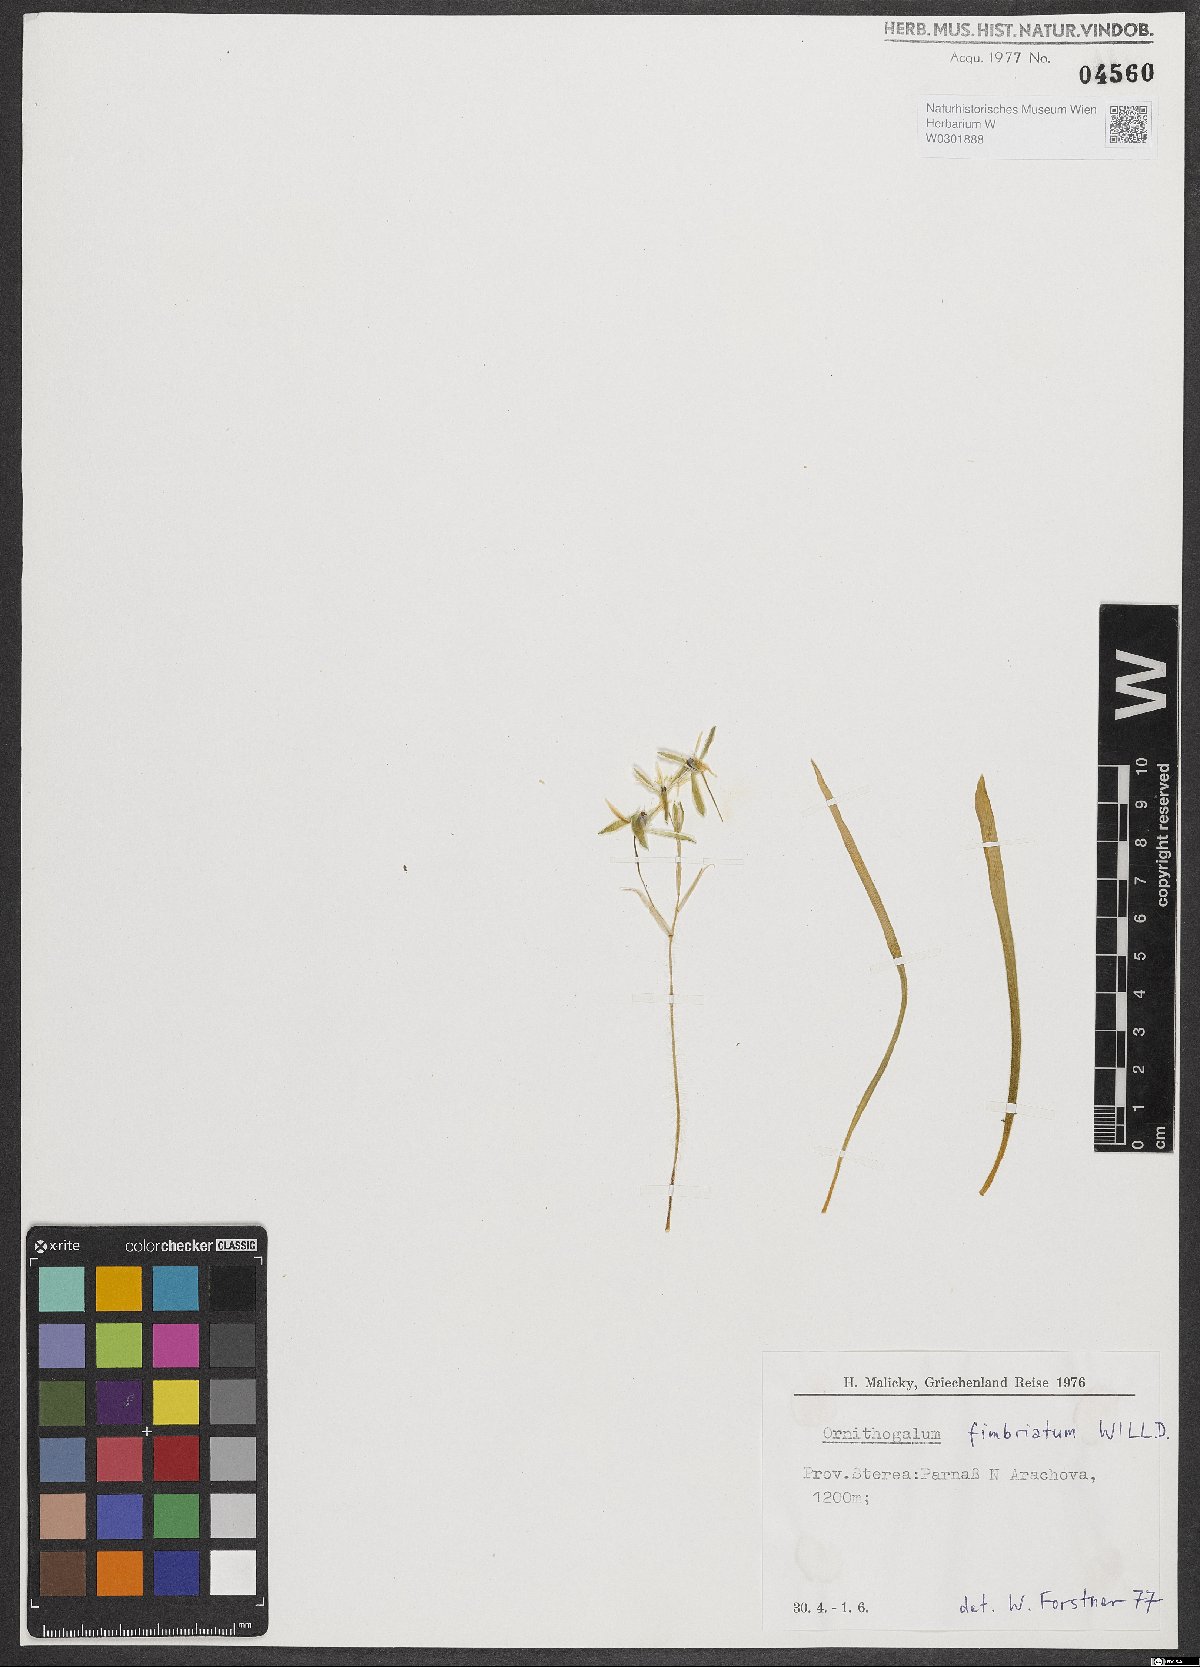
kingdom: Plantae
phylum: Tracheophyta
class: Liliopsida
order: Asparagales
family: Asparagaceae
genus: Ornithogalum
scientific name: Ornithogalum fimbriatum
